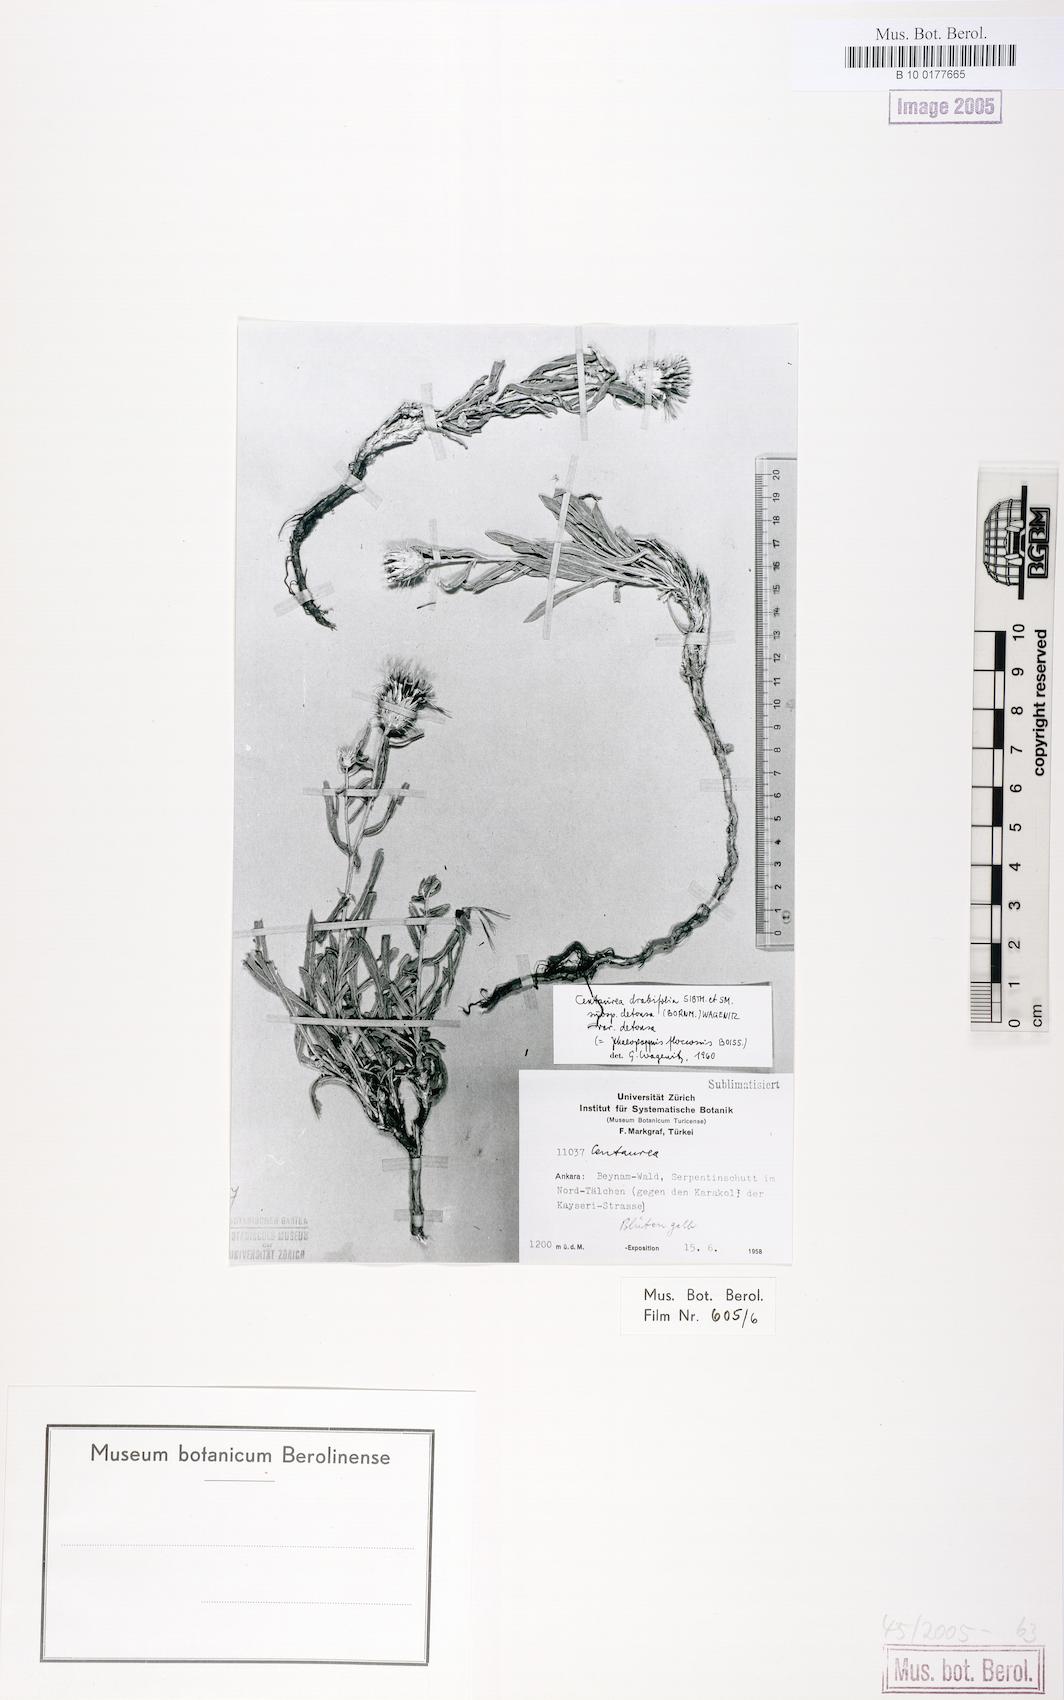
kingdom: Plantae
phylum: Tracheophyta
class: Magnoliopsida
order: Asterales
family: Asteraceae
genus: Centaurea
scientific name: Centaurea kotschyi
